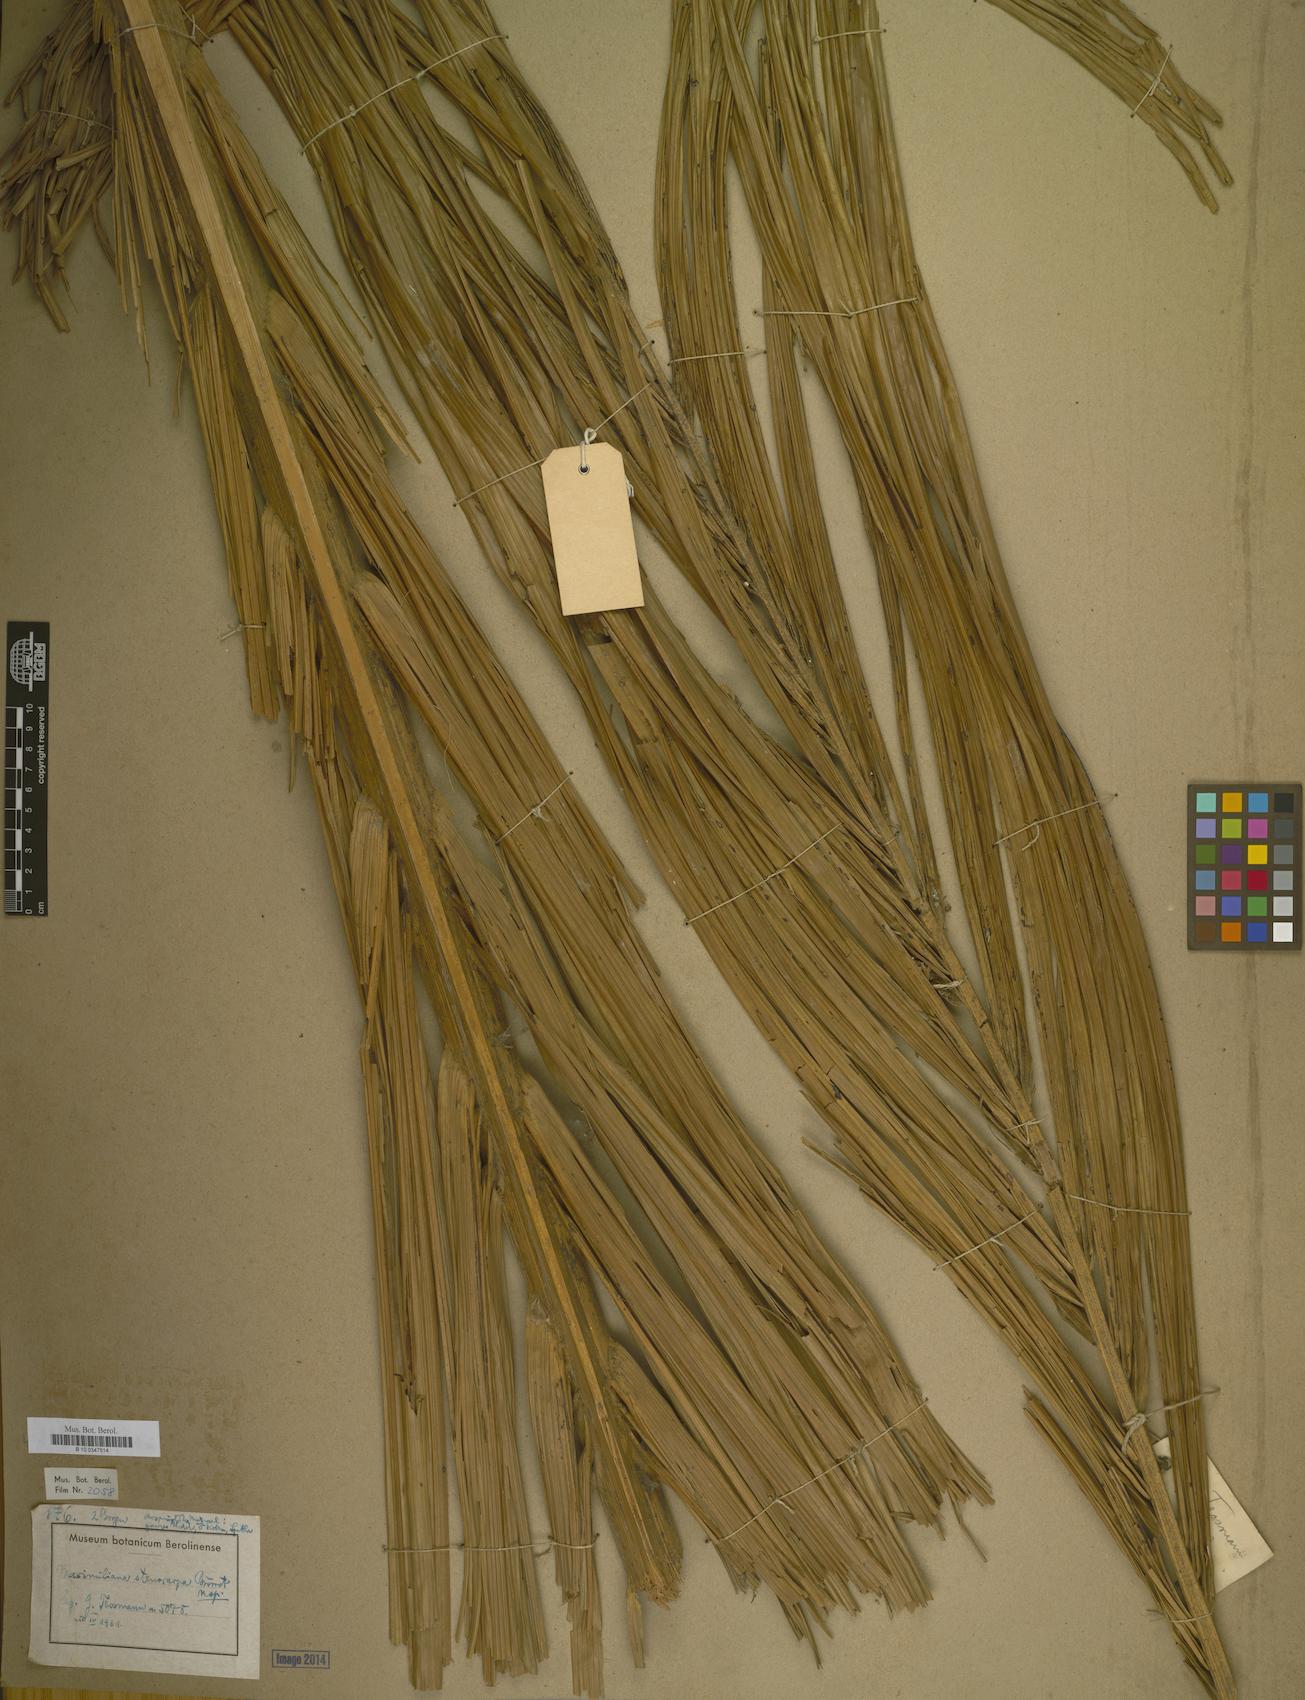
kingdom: Plantae
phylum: Tracheophyta
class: Liliopsida
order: Arecales
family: Arecaceae
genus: Attalea
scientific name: Attalea maripa
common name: Maripa palm
